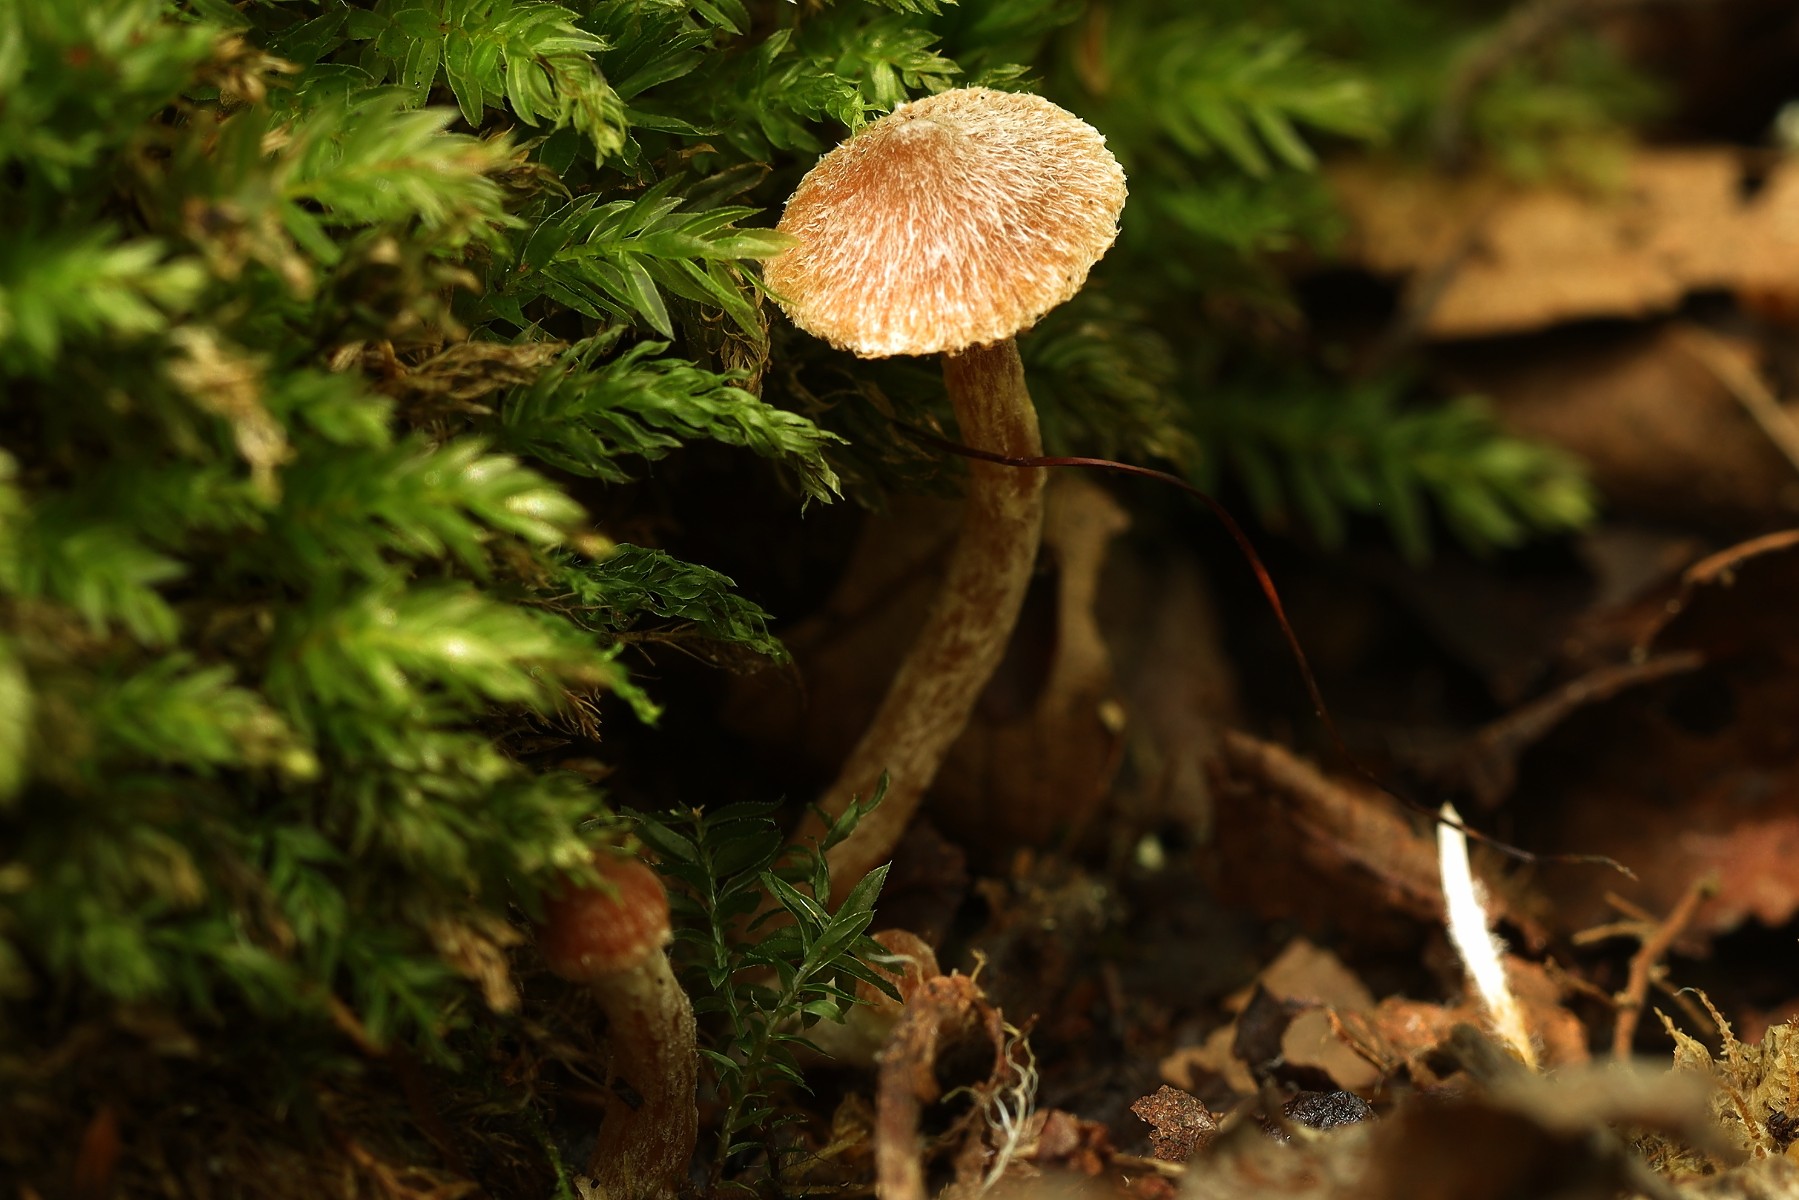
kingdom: Fungi
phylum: Basidiomycota
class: Agaricomycetes
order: Agaricales
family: Cortinariaceae
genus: Cortinarius
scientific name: Cortinarius acutus
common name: spids slørhat
